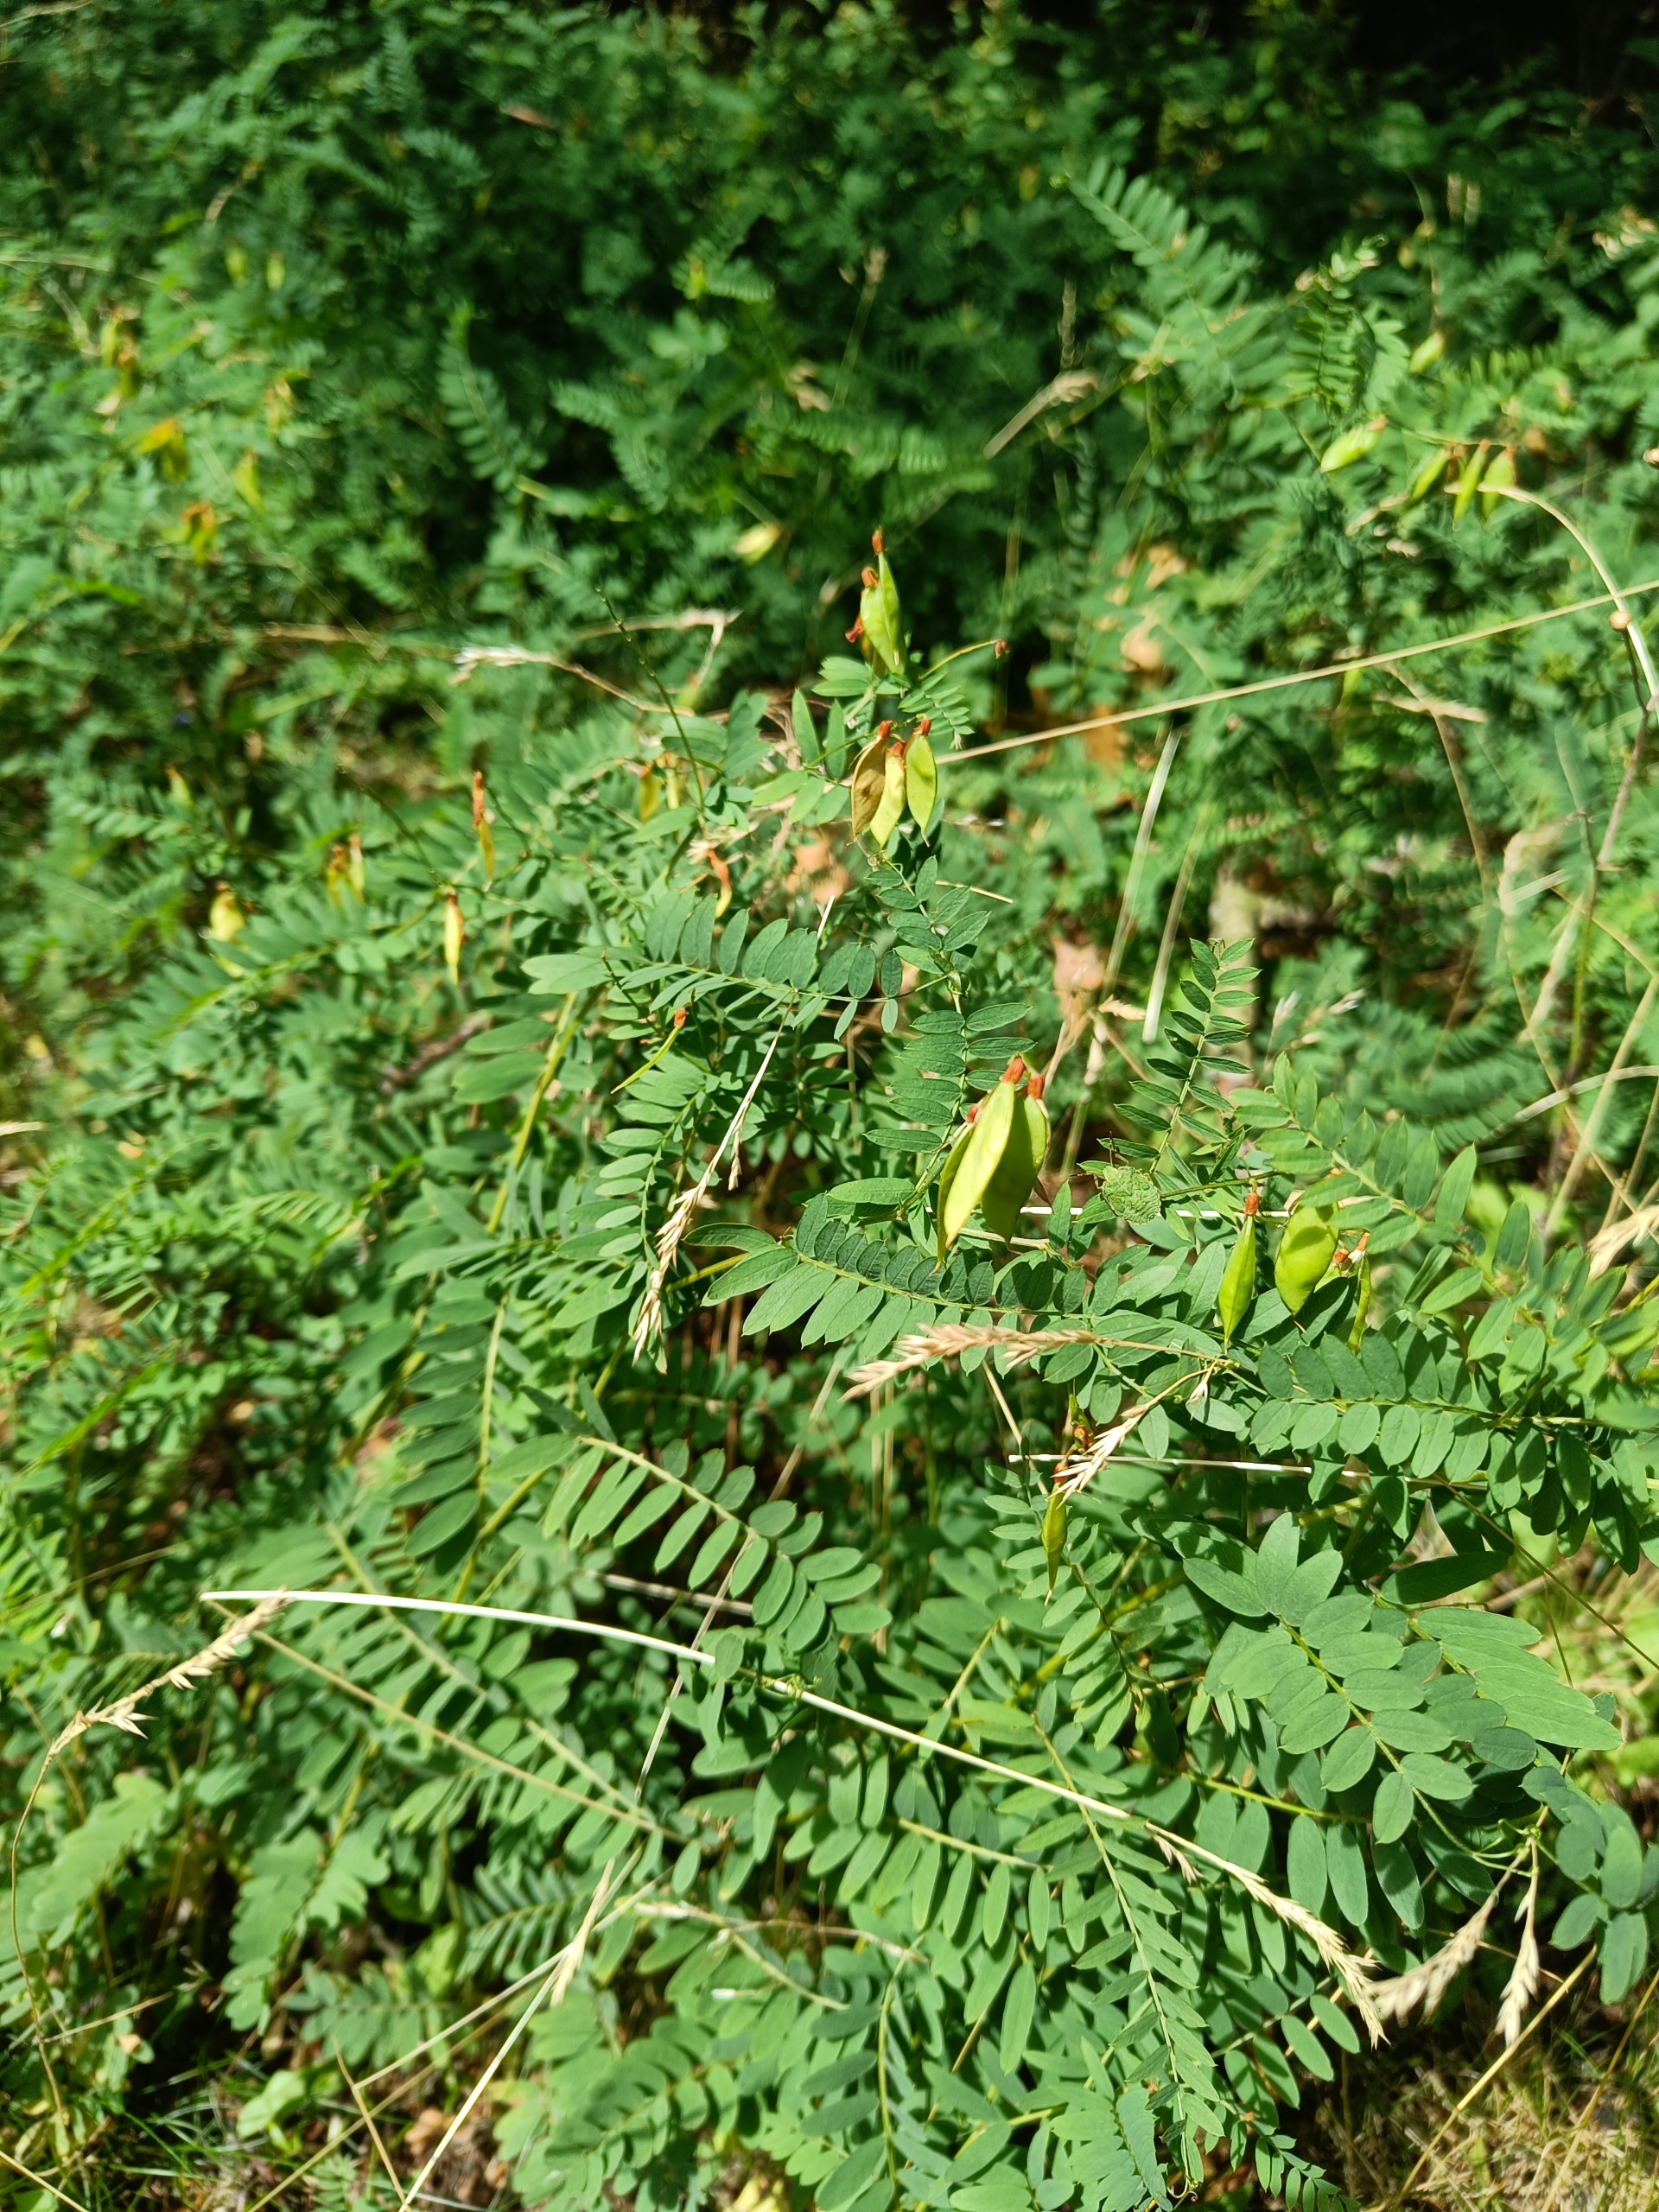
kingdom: Plantae
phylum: Tracheophyta
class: Magnoliopsida
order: Fabales
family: Fabaceae
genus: Vicia
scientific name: Vicia cassubica
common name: Kassubisk vikke
